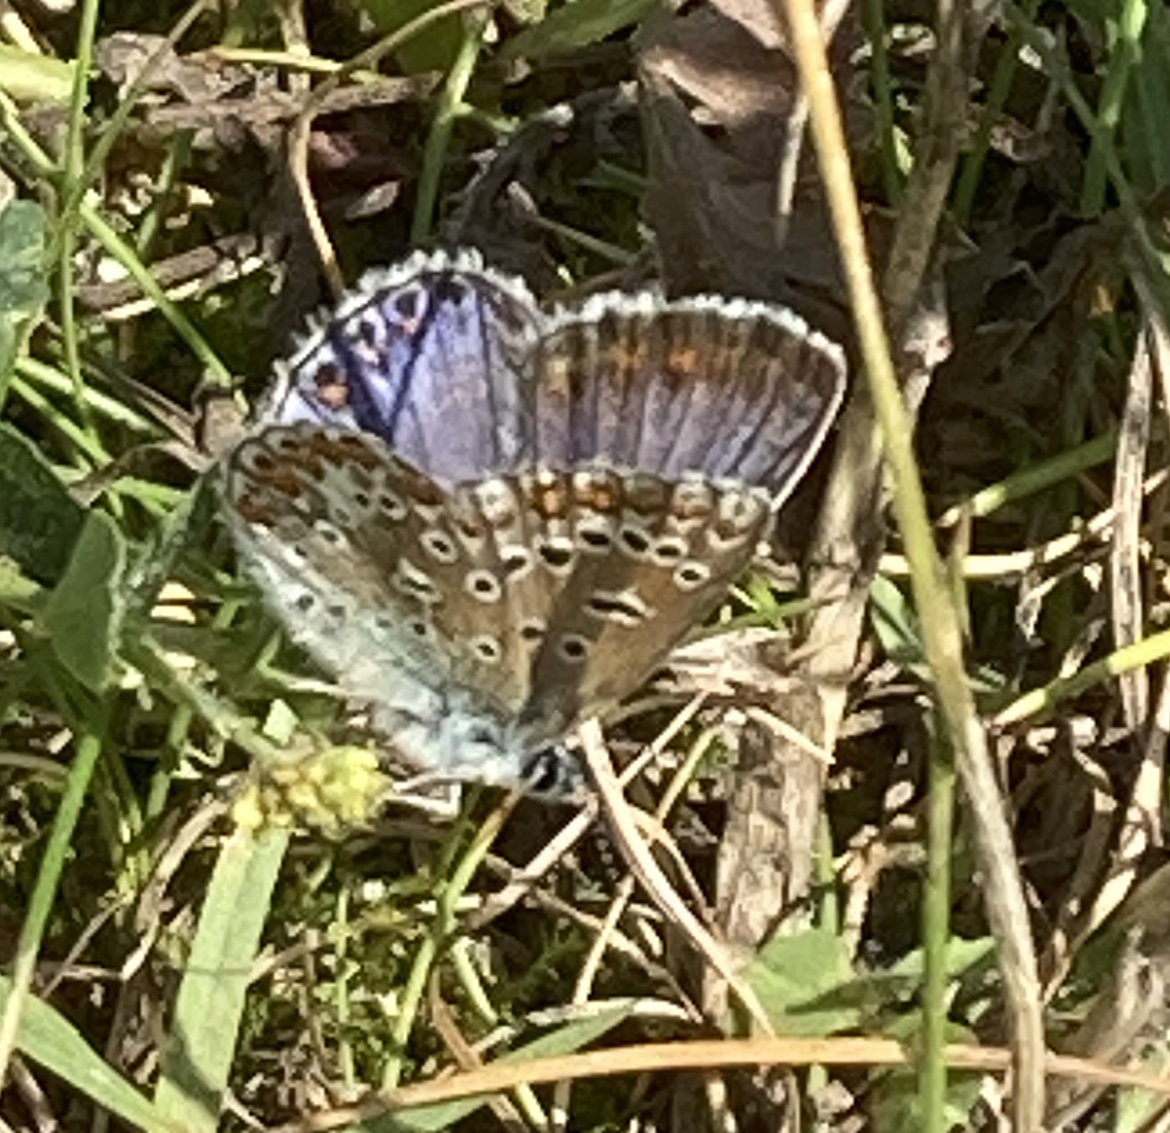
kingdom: Animalia
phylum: Arthropoda
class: Insecta
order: Lepidoptera
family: Lycaenidae
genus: Polyommatus
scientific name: Polyommatus icarus
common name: Almindelig blåfugl
